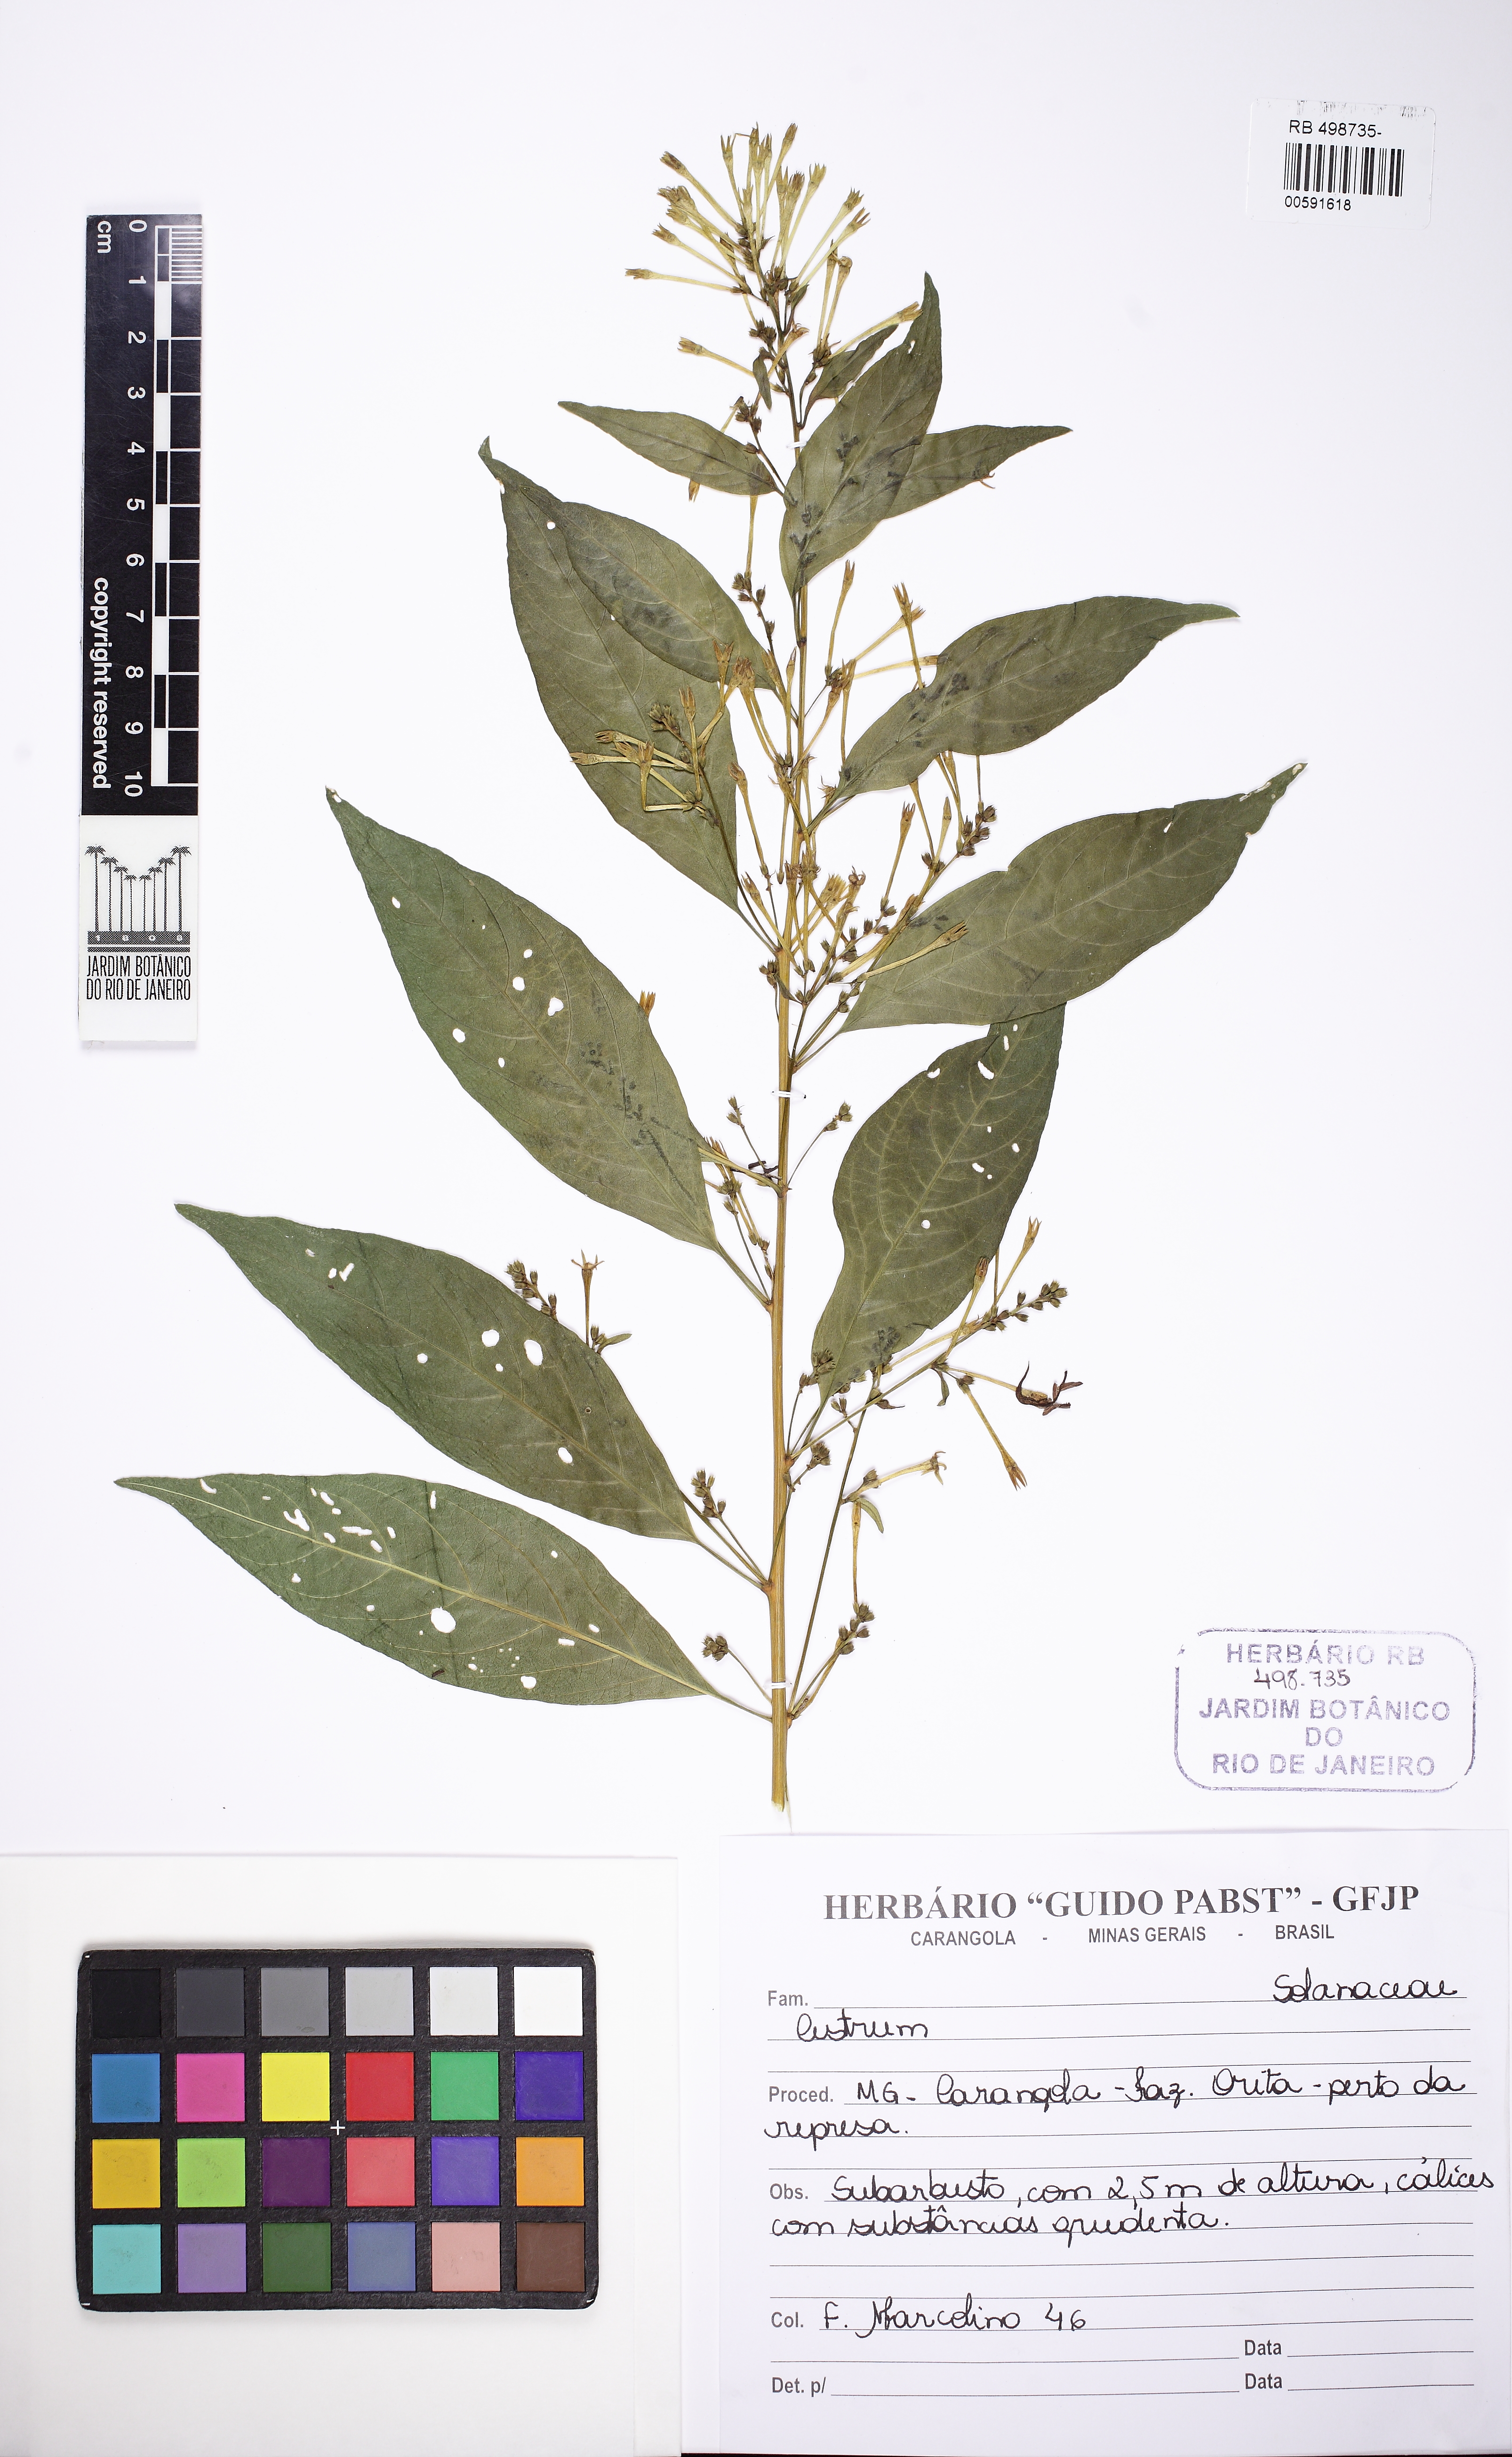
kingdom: Plantae
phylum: Tracheophyta
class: Magnoliopsida
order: Solanales
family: Solanaceae
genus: Cestrum
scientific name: Cestrum
